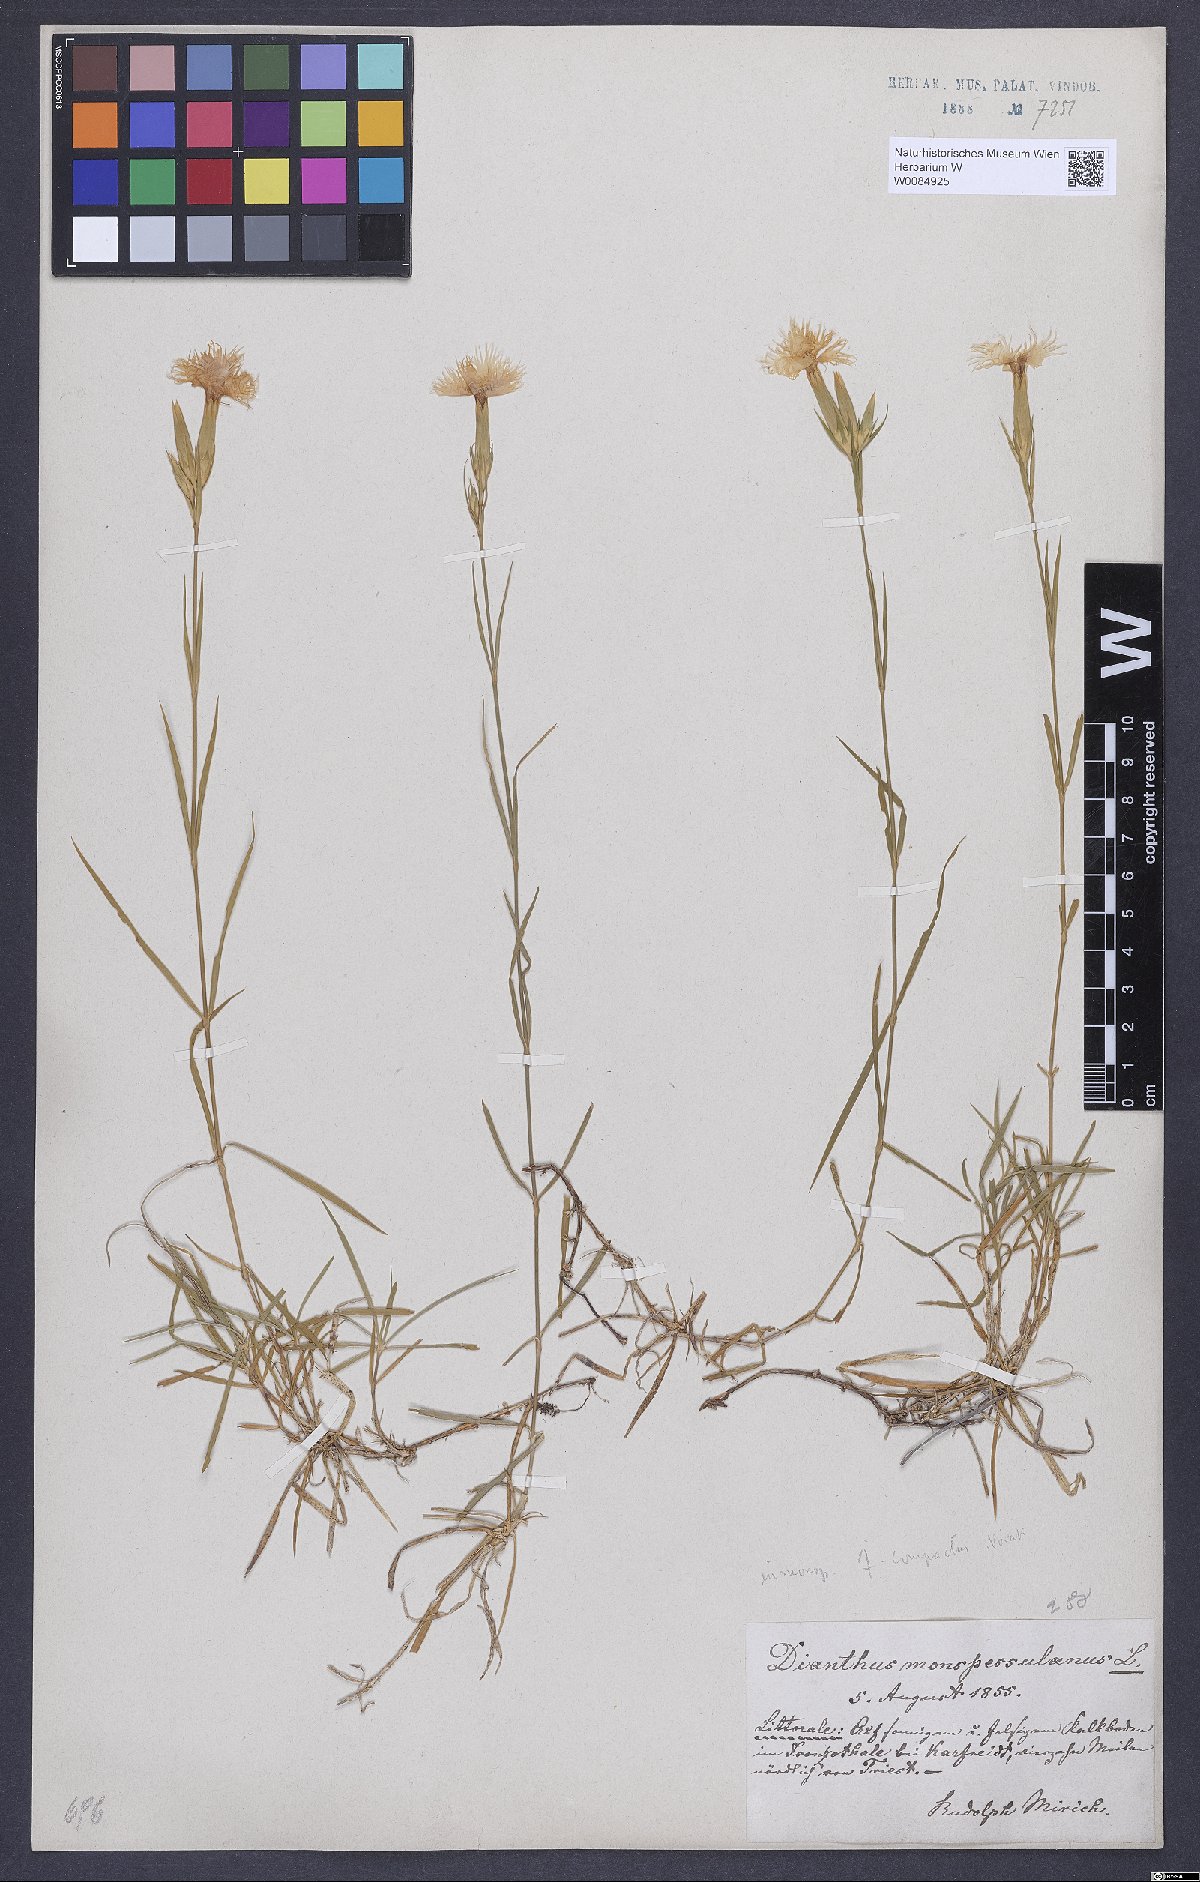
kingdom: Plantae
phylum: Tracheophyta
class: Magnoliopsida
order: Caryophyllales
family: Caryophyllaceae
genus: Dianthus
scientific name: Dianthus hyssopifolius
